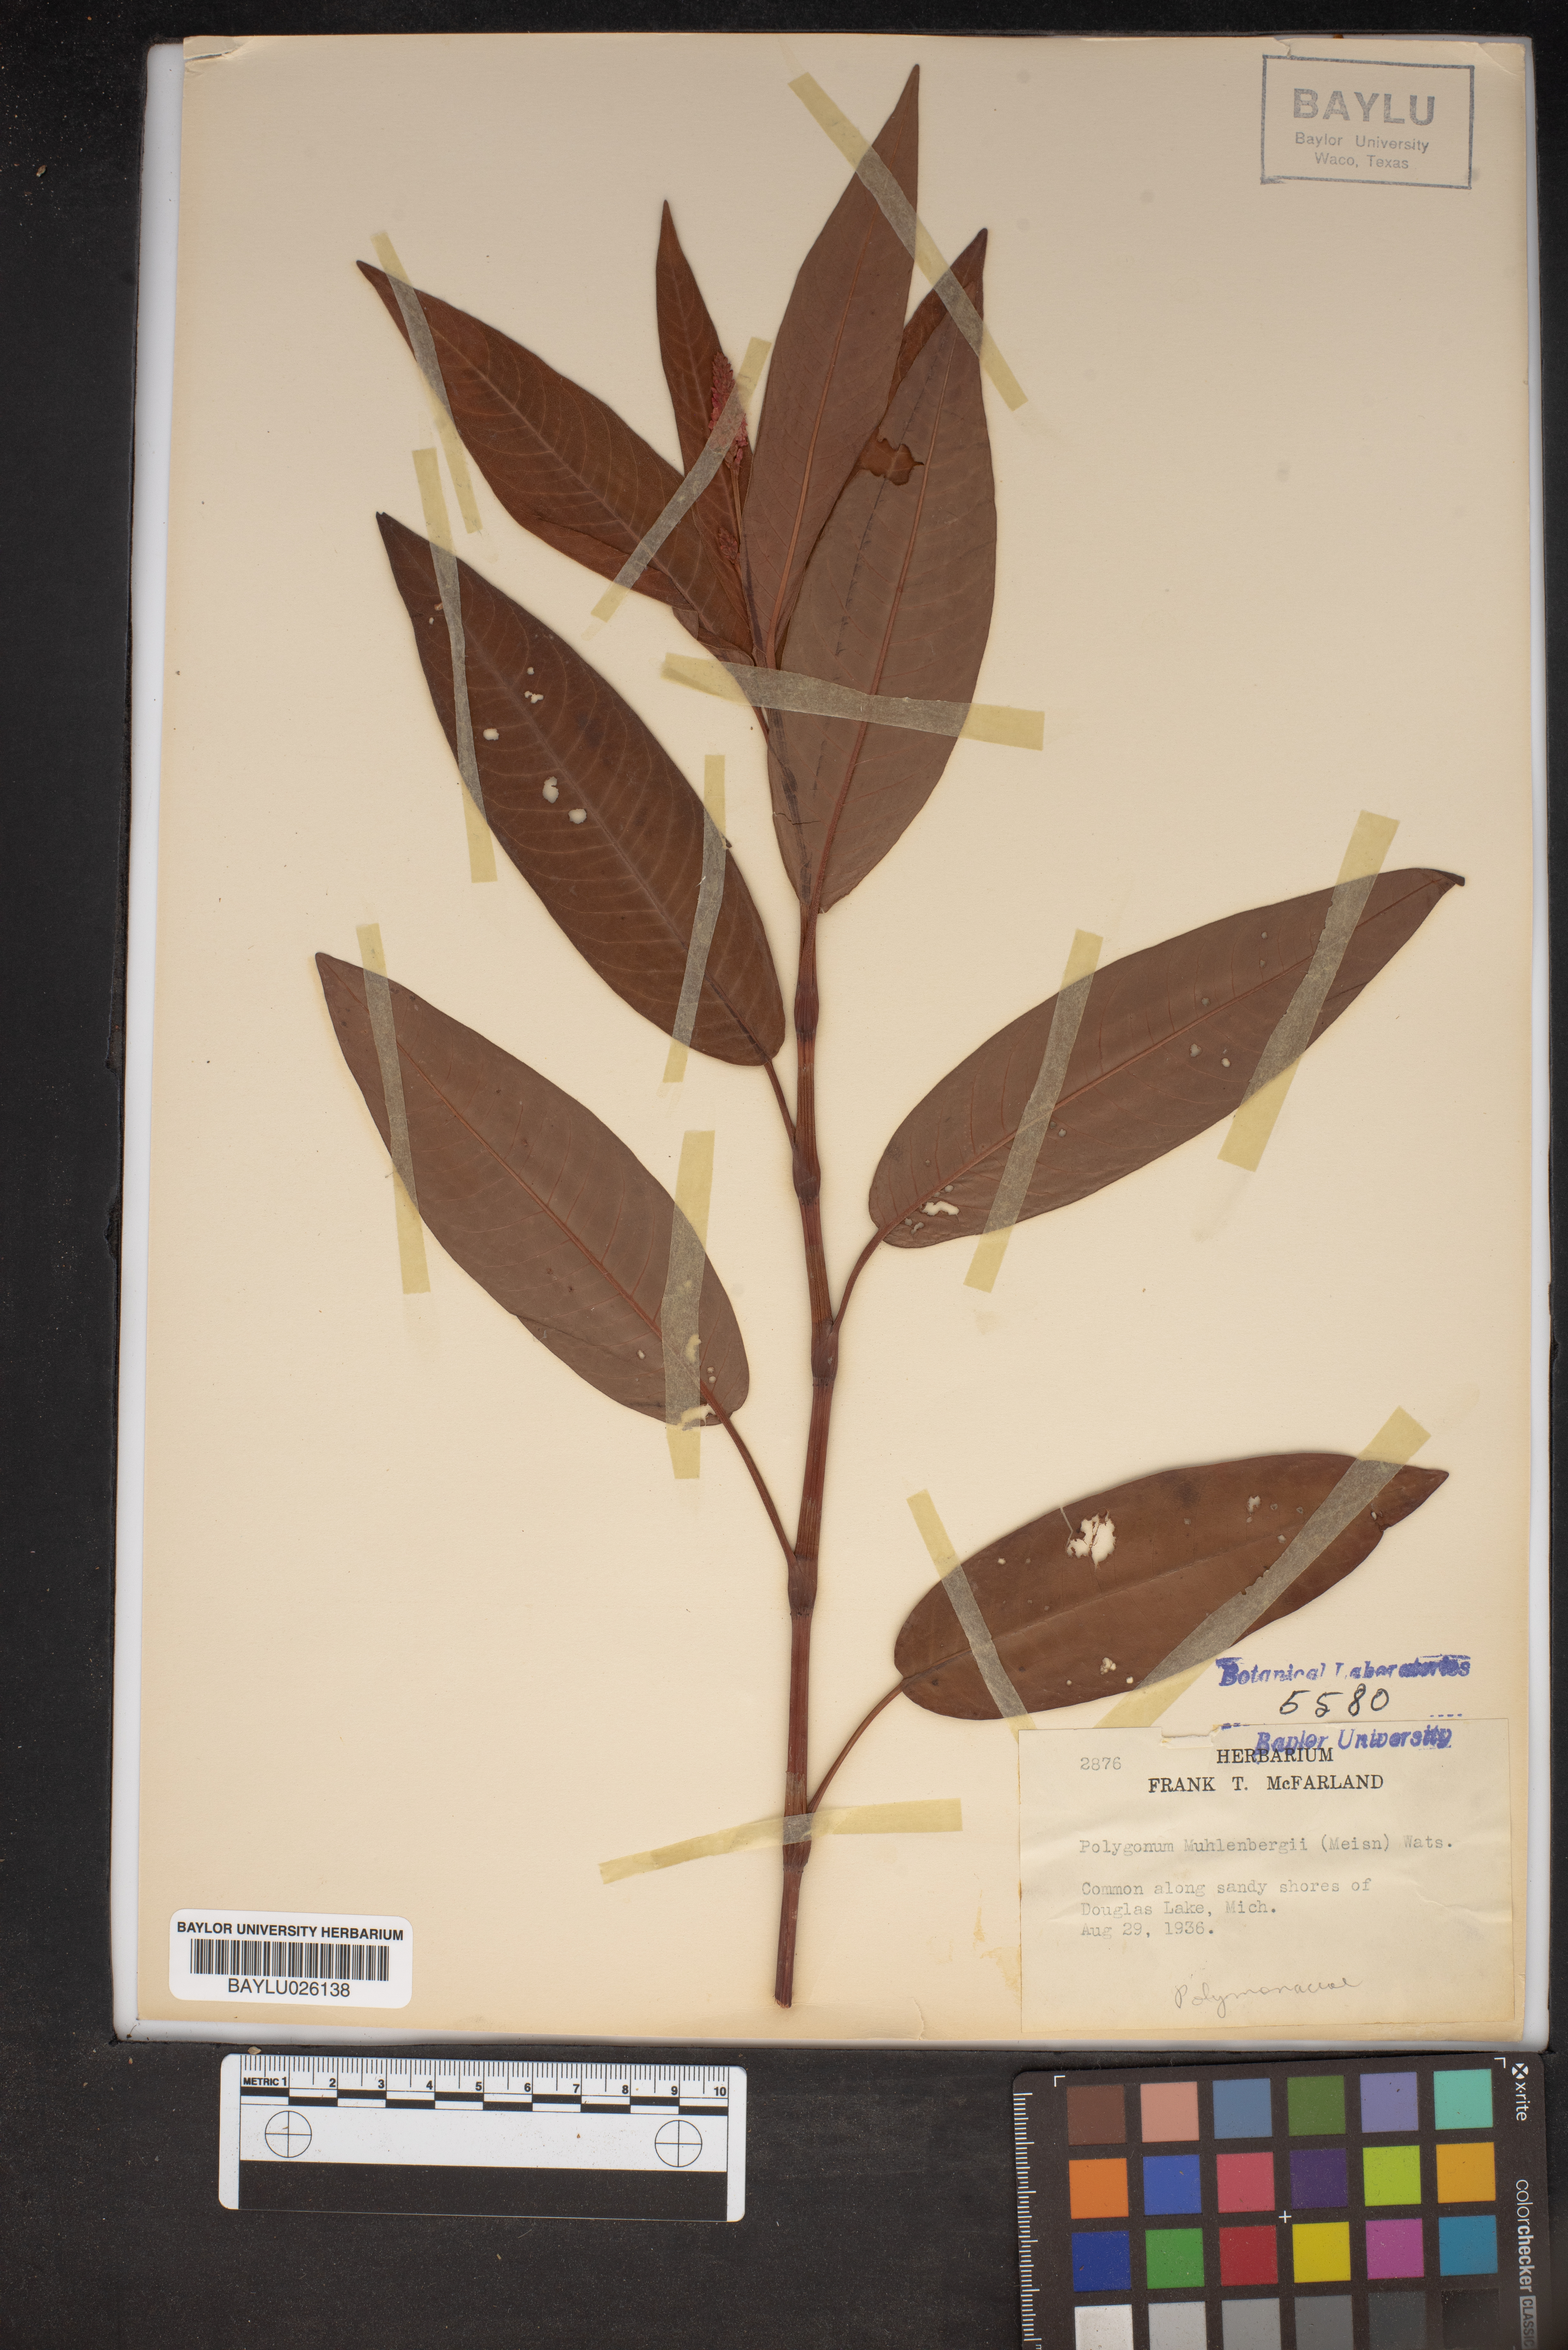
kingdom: Plantae
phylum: Tracheophyta
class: Magnoliopsida
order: Caryophyllales
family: Polygonaceae
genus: Persicaria
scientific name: Persicaria amphibia
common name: Amphibious bistort
